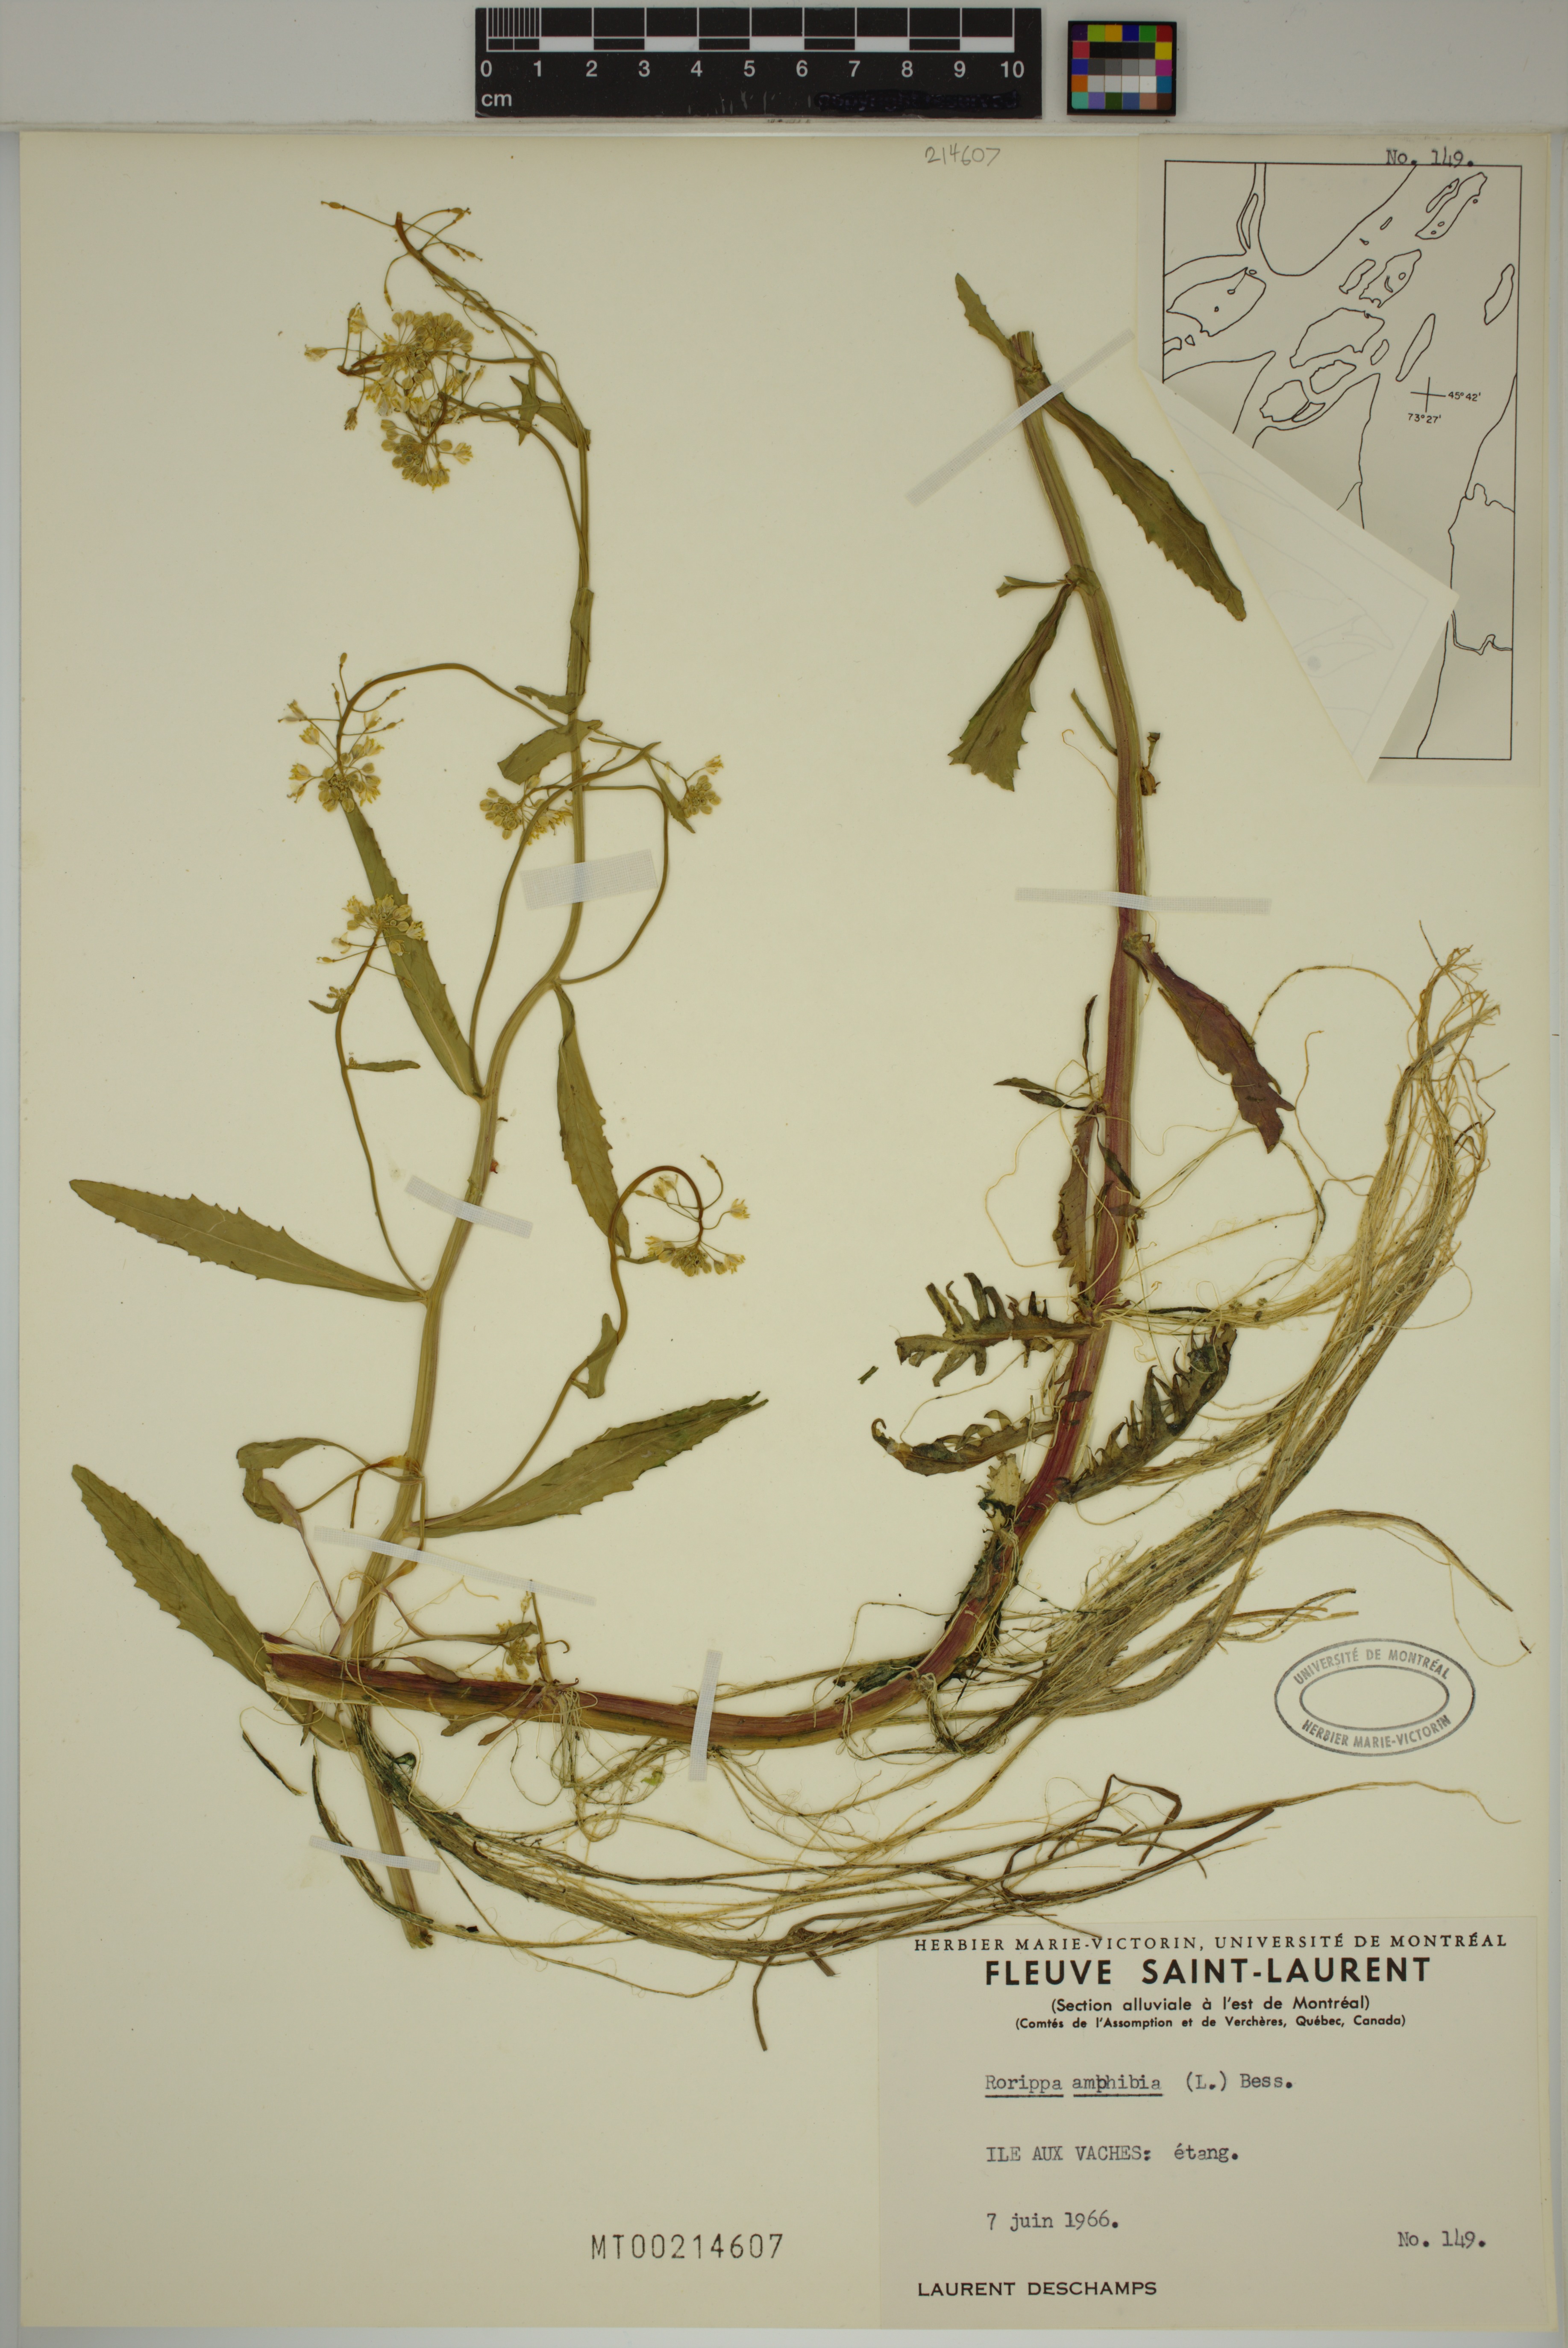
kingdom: Plantae
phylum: Tracheophyta
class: Magnoliopsida
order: Brassicales
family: Brassicaceae
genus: Rorippa
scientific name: Rorippa amphibia
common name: Great yellow-cress
